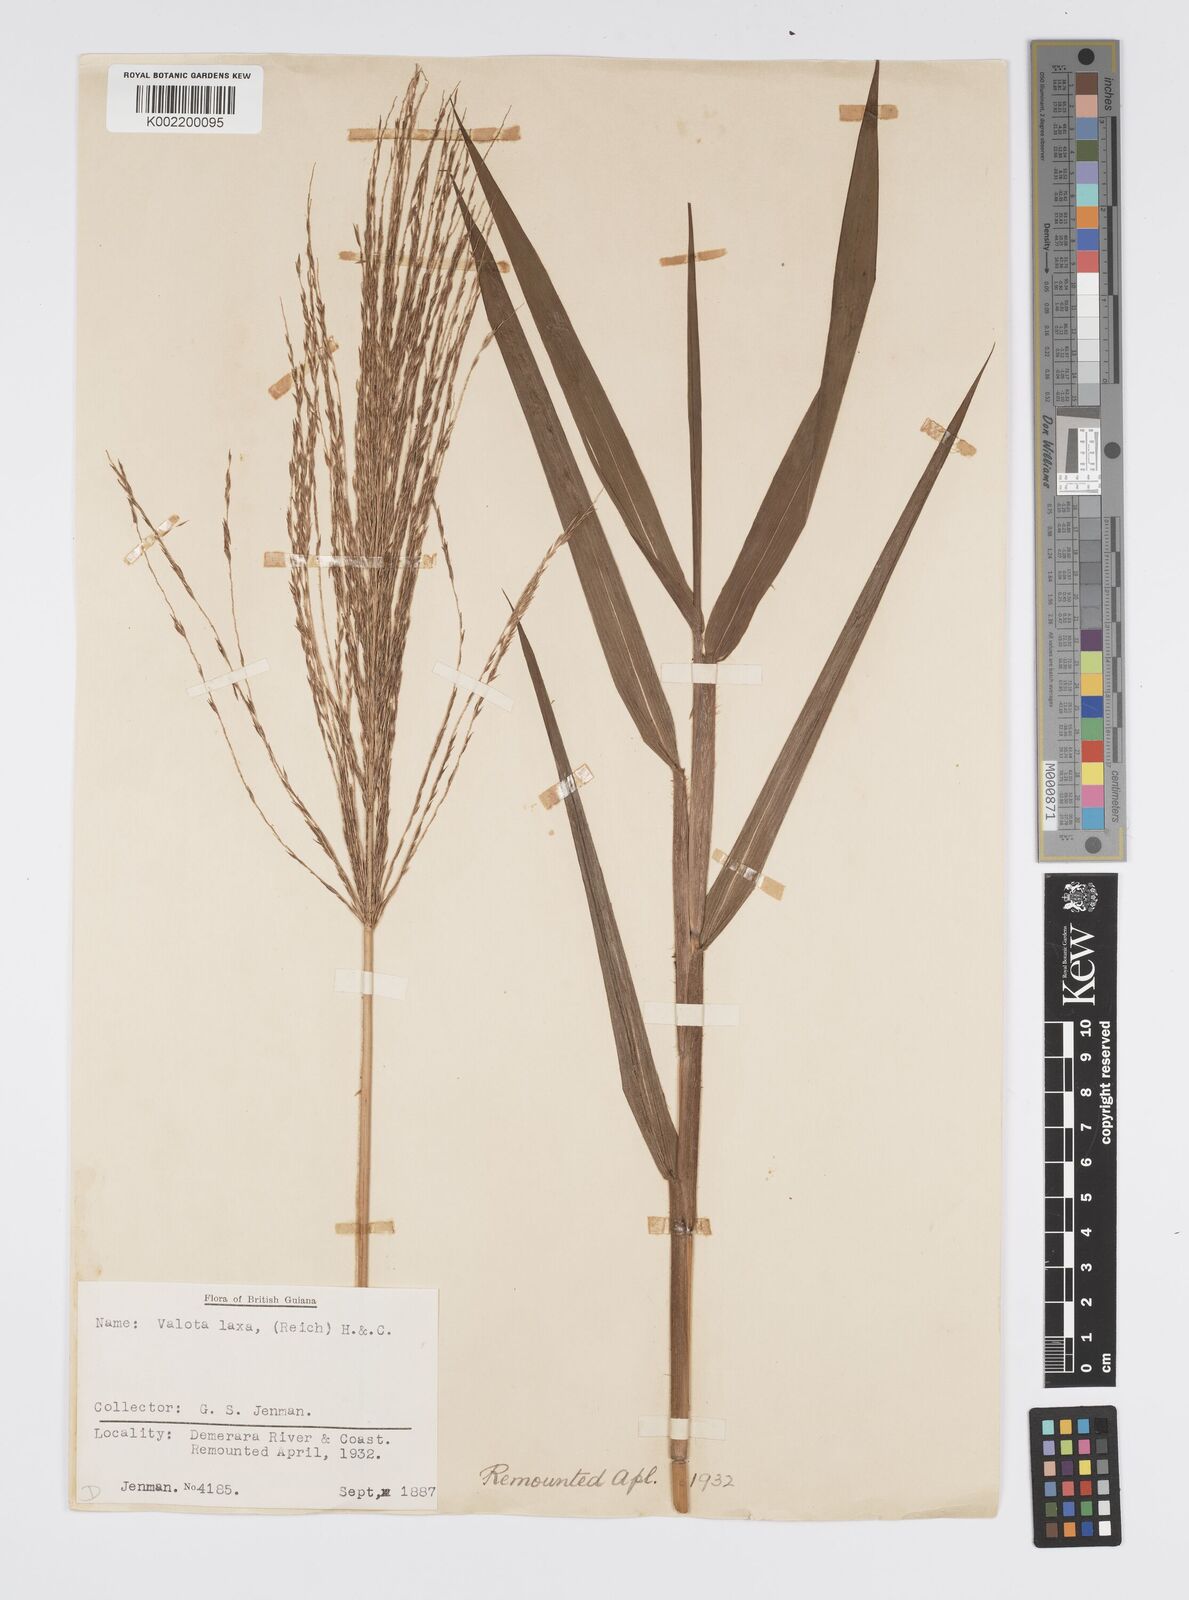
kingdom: Plantae
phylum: Tracheophyta
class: Liliopsida
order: Poales
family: Poaceae
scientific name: Poaceae
